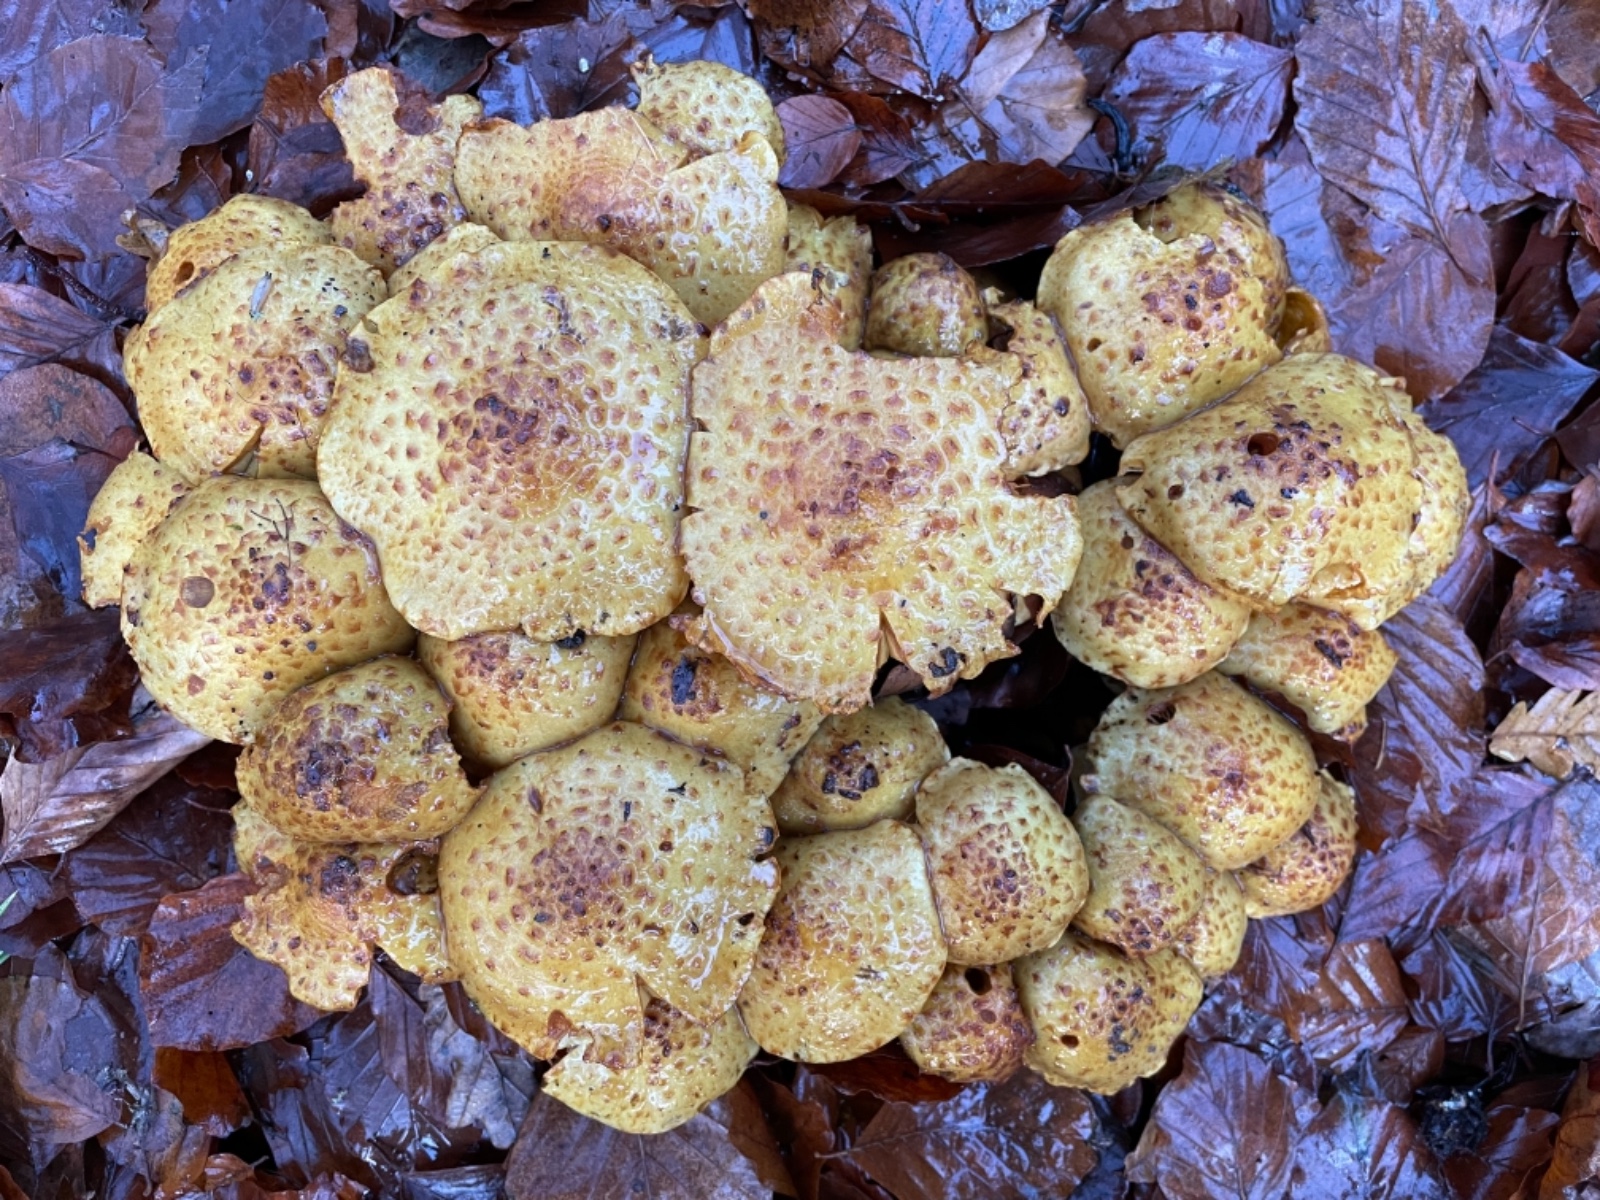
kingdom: Fungi
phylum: Basidiomycota
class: Agaricomycetes
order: Agaricales
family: Strophariaceae
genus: Pholiota
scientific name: Pholiota jahnii
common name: slimet skælhat
